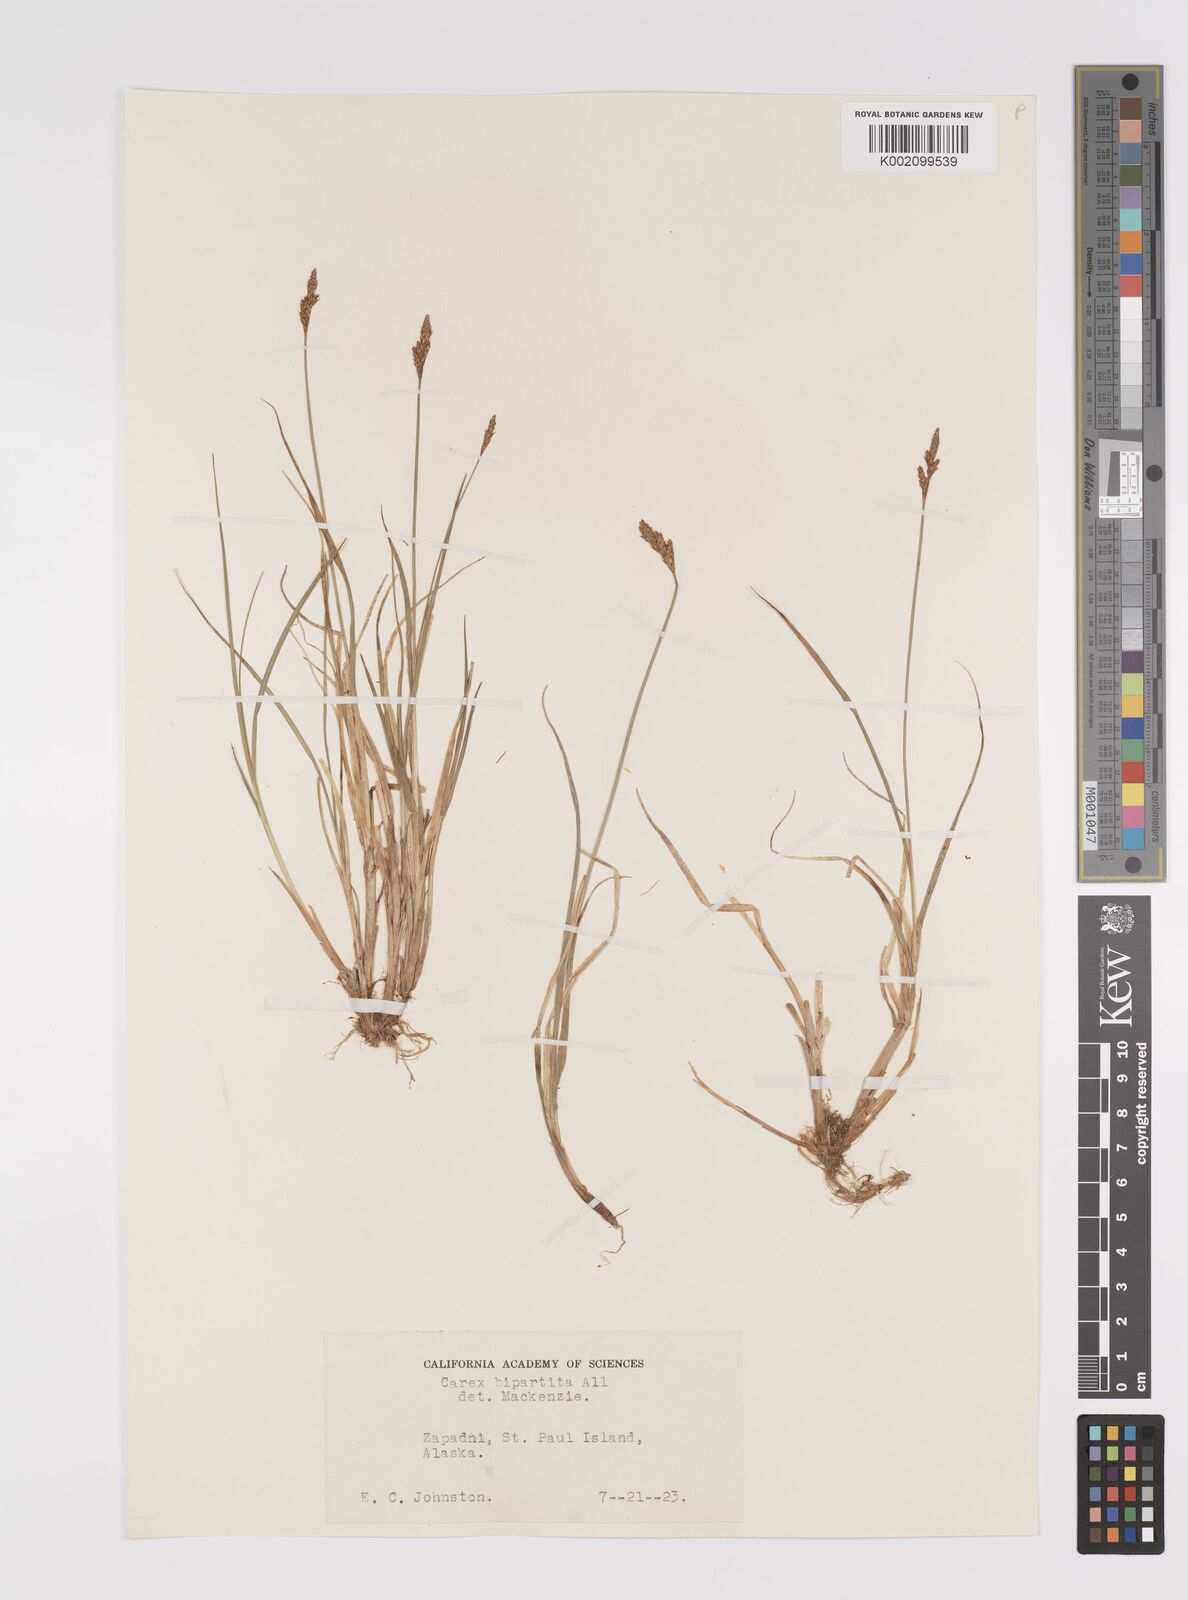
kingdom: Plantae
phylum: Tracheophyta
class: Liliopsida
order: Poales
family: Cyperaceae
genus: Carex
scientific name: Carex lachenalii
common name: Hare's-foot sedge
